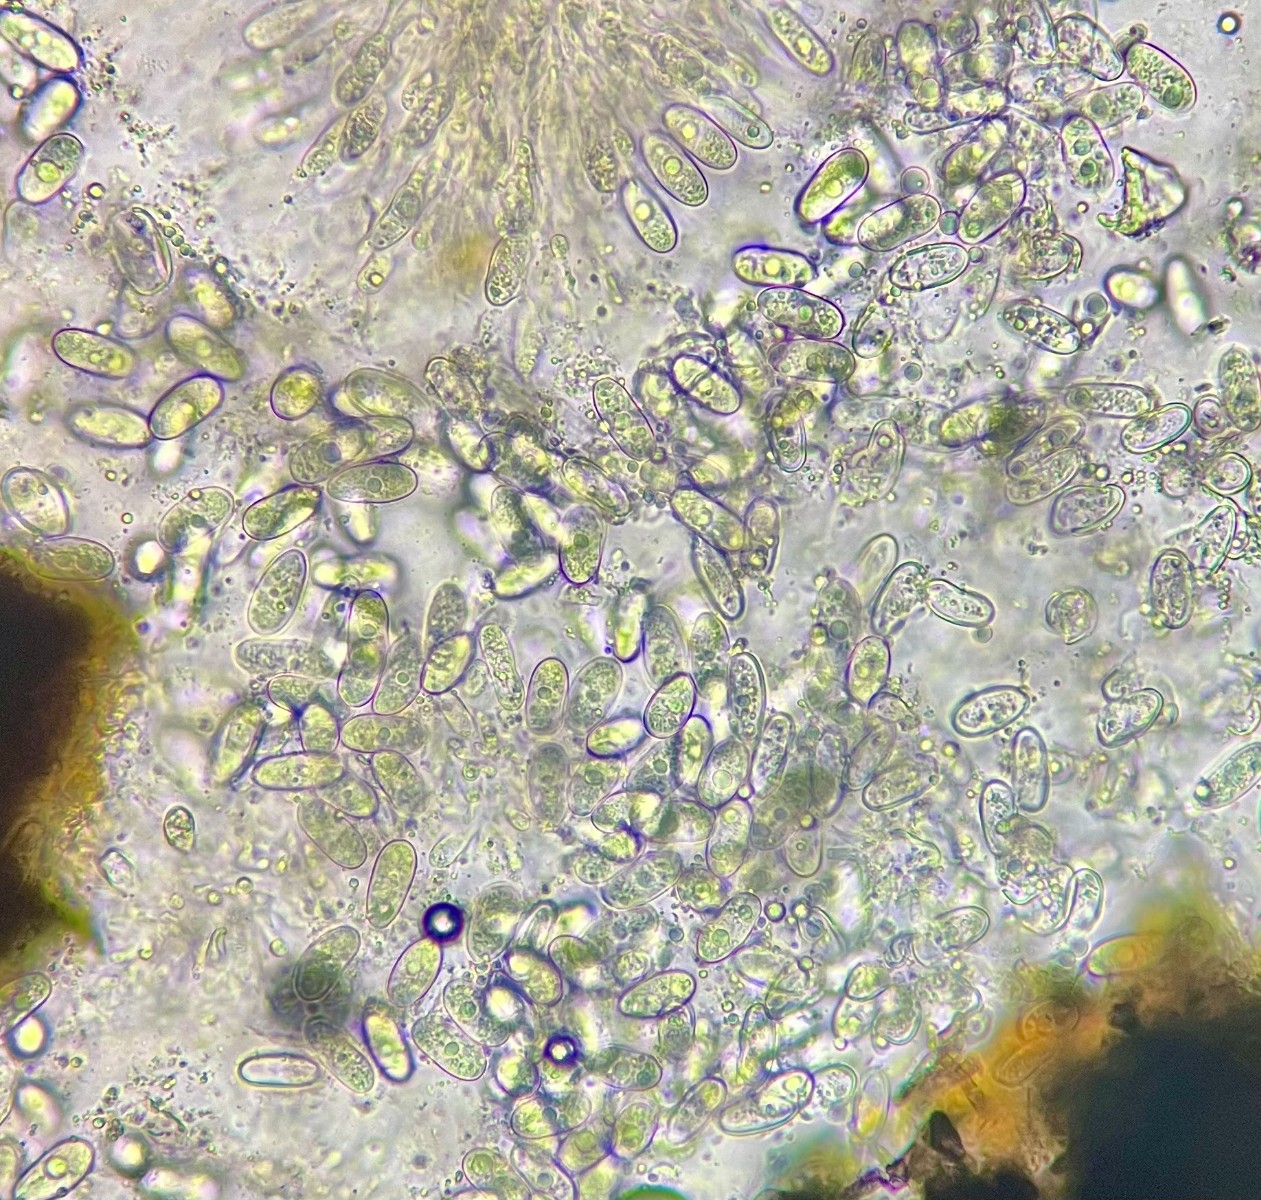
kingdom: Fungi
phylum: Ascomycota
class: Sordariomycetes
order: Diaporthales
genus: Botryodiplodia
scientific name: Botryodiplodia fraxini
